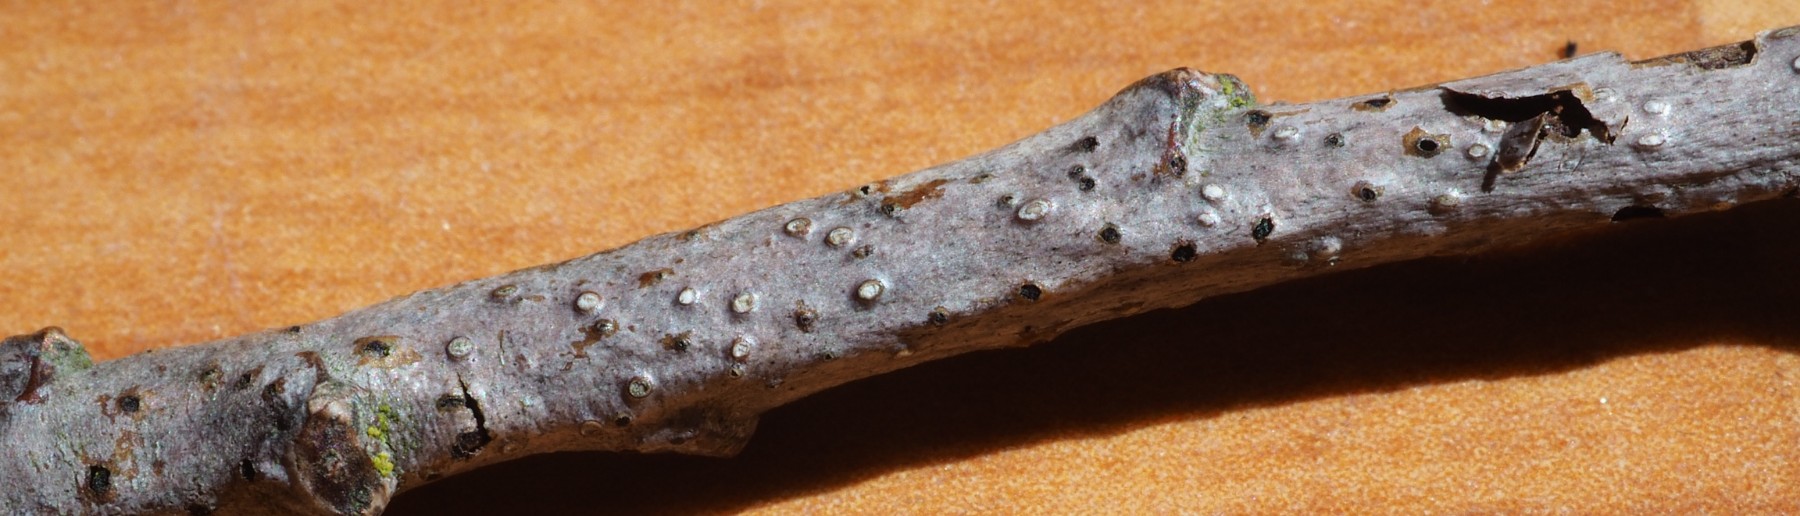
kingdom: Fungi
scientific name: Fungi
